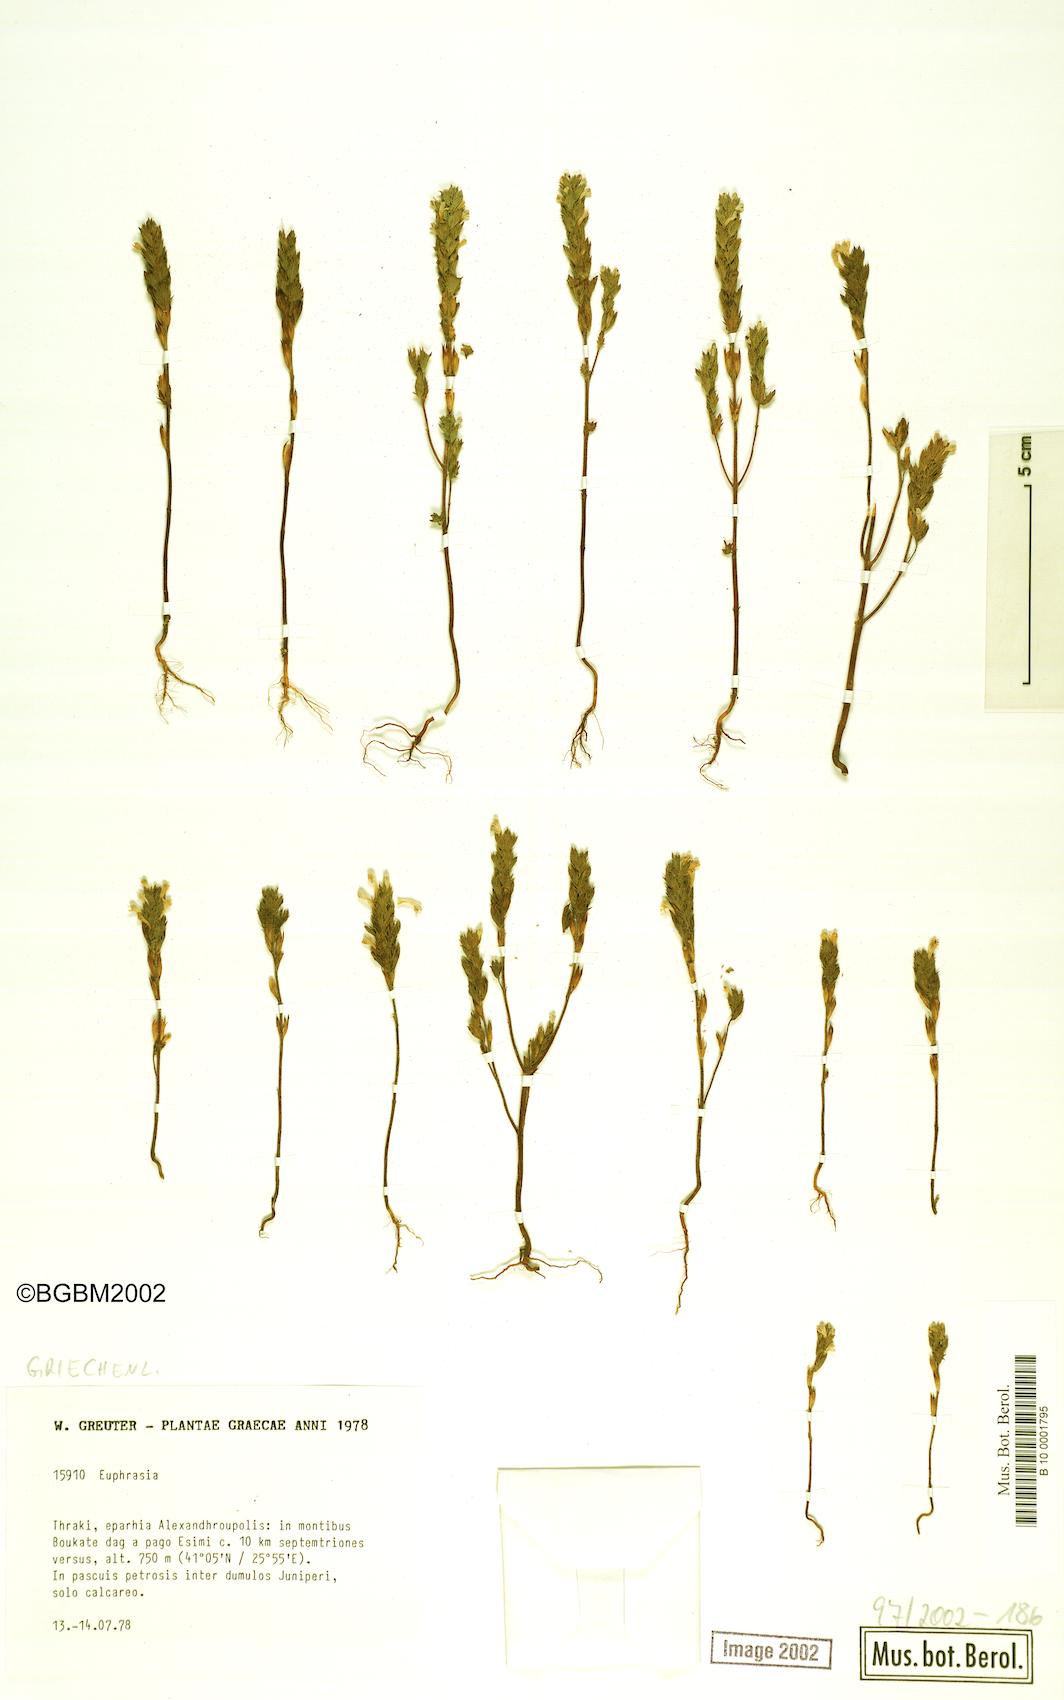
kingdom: Plantae
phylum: Tracheophyta
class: Magnoliopsida
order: Lamiales
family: Orobanchaceae
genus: Euphrasia
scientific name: Euphrasia
